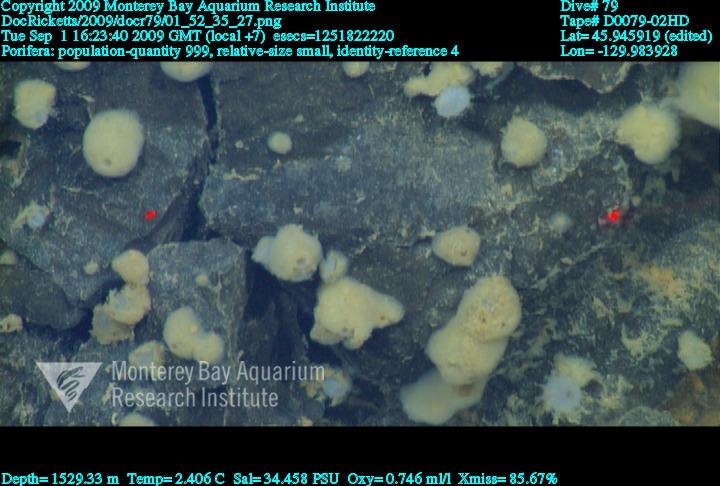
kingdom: Animalia
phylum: Porifera
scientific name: Porifera
